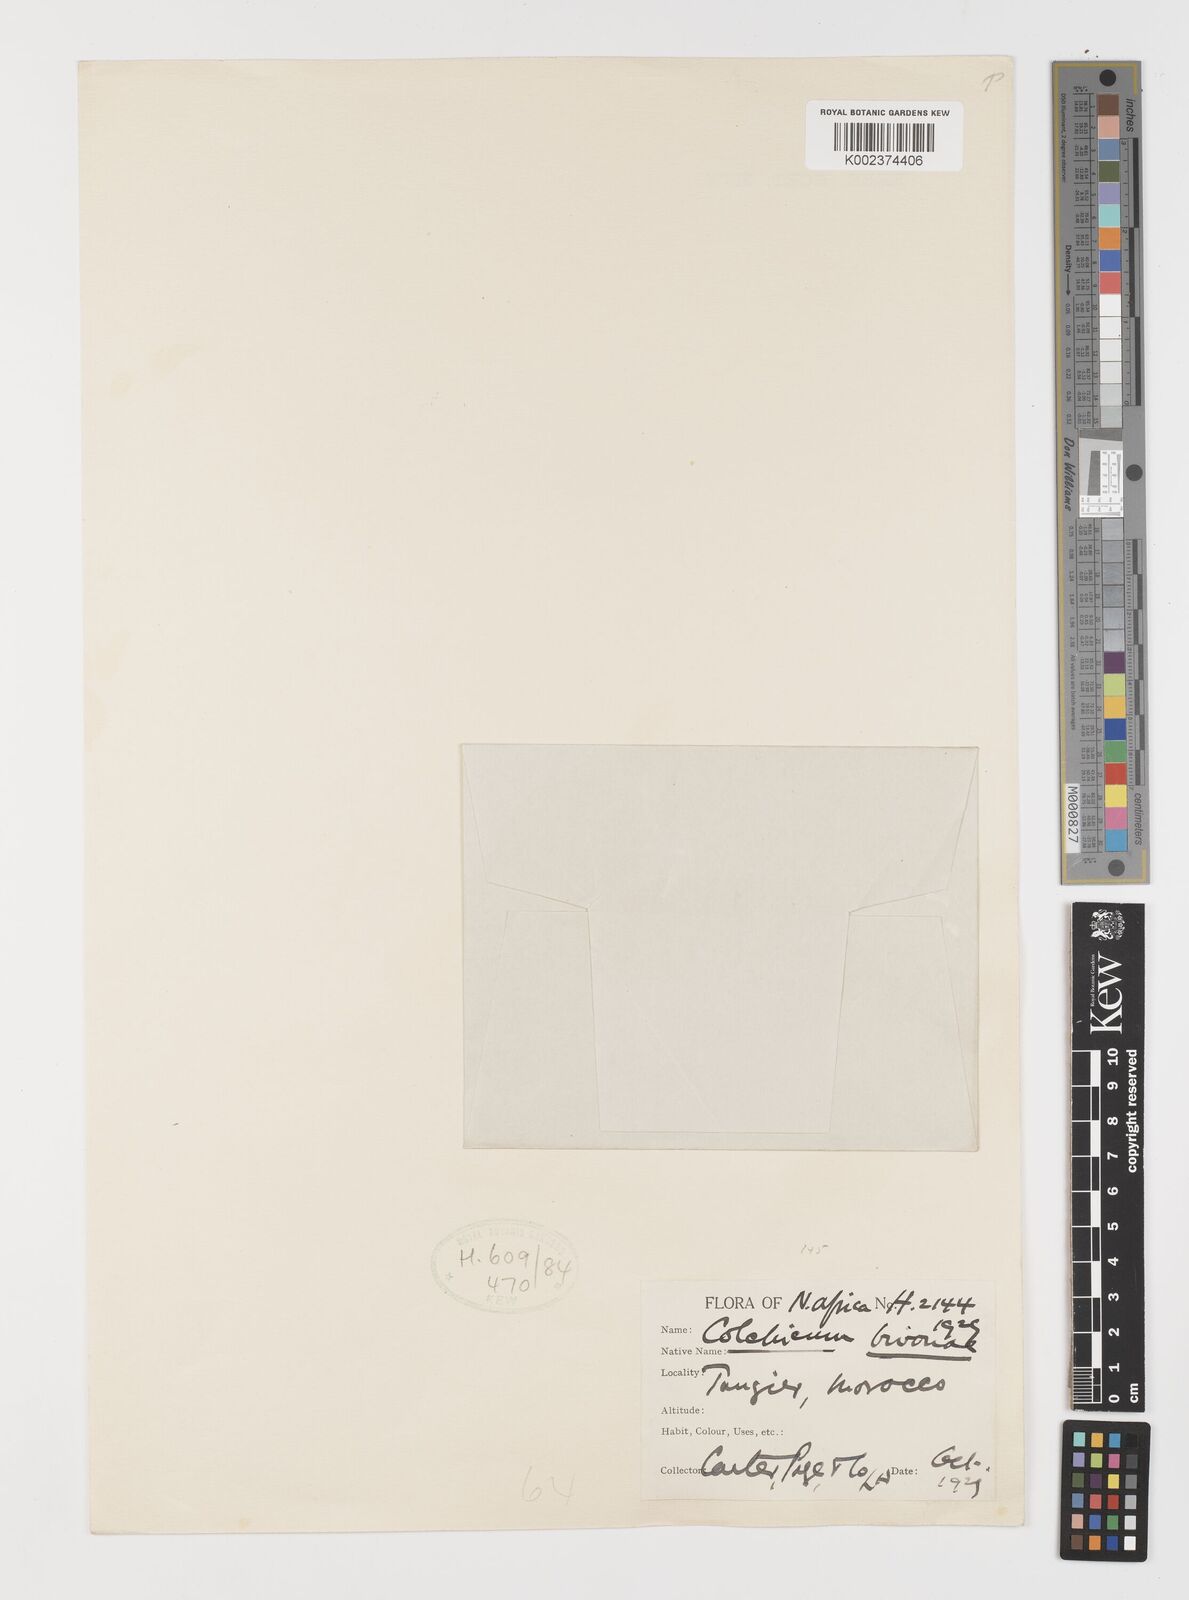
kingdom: Plantae
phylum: Tracheophyta
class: Liliopsida
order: Liliales
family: Colchicaceae
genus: Colchicum
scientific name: Colchicum
